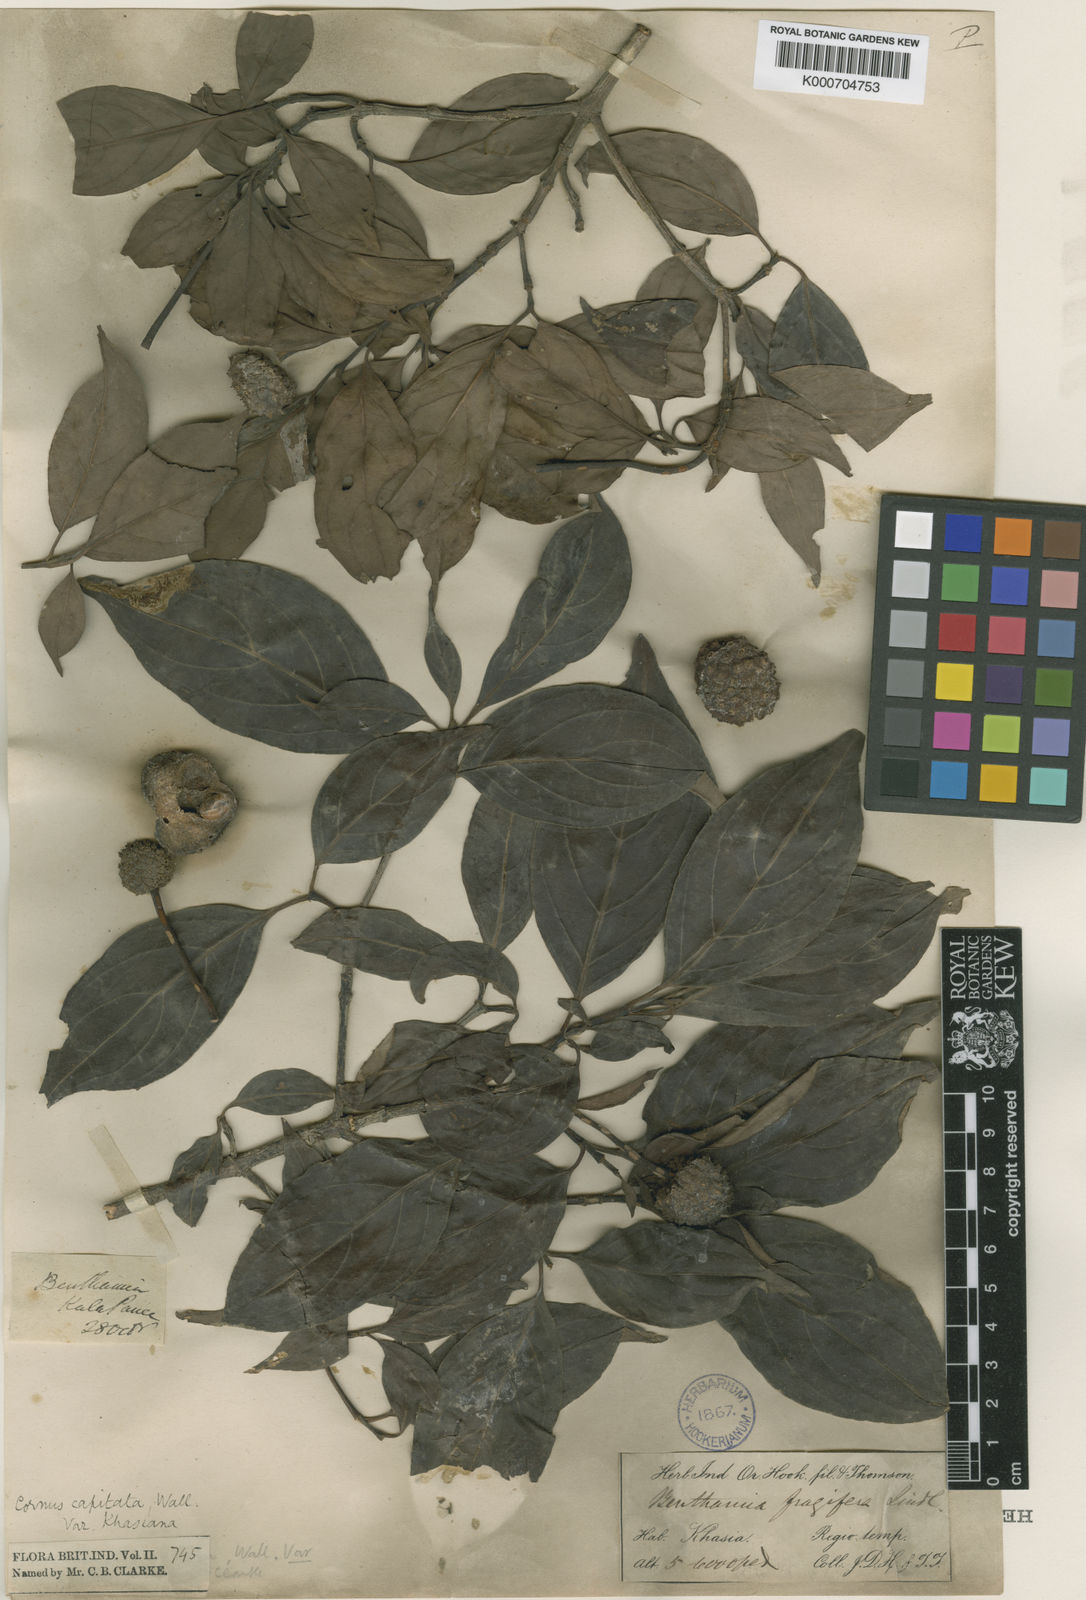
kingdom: Plantae
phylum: Tracheophyta
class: Magnoliopsida
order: Cornales
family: Cornaceae
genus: Cornus
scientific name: Cornus capitata
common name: Bentham's cornel
